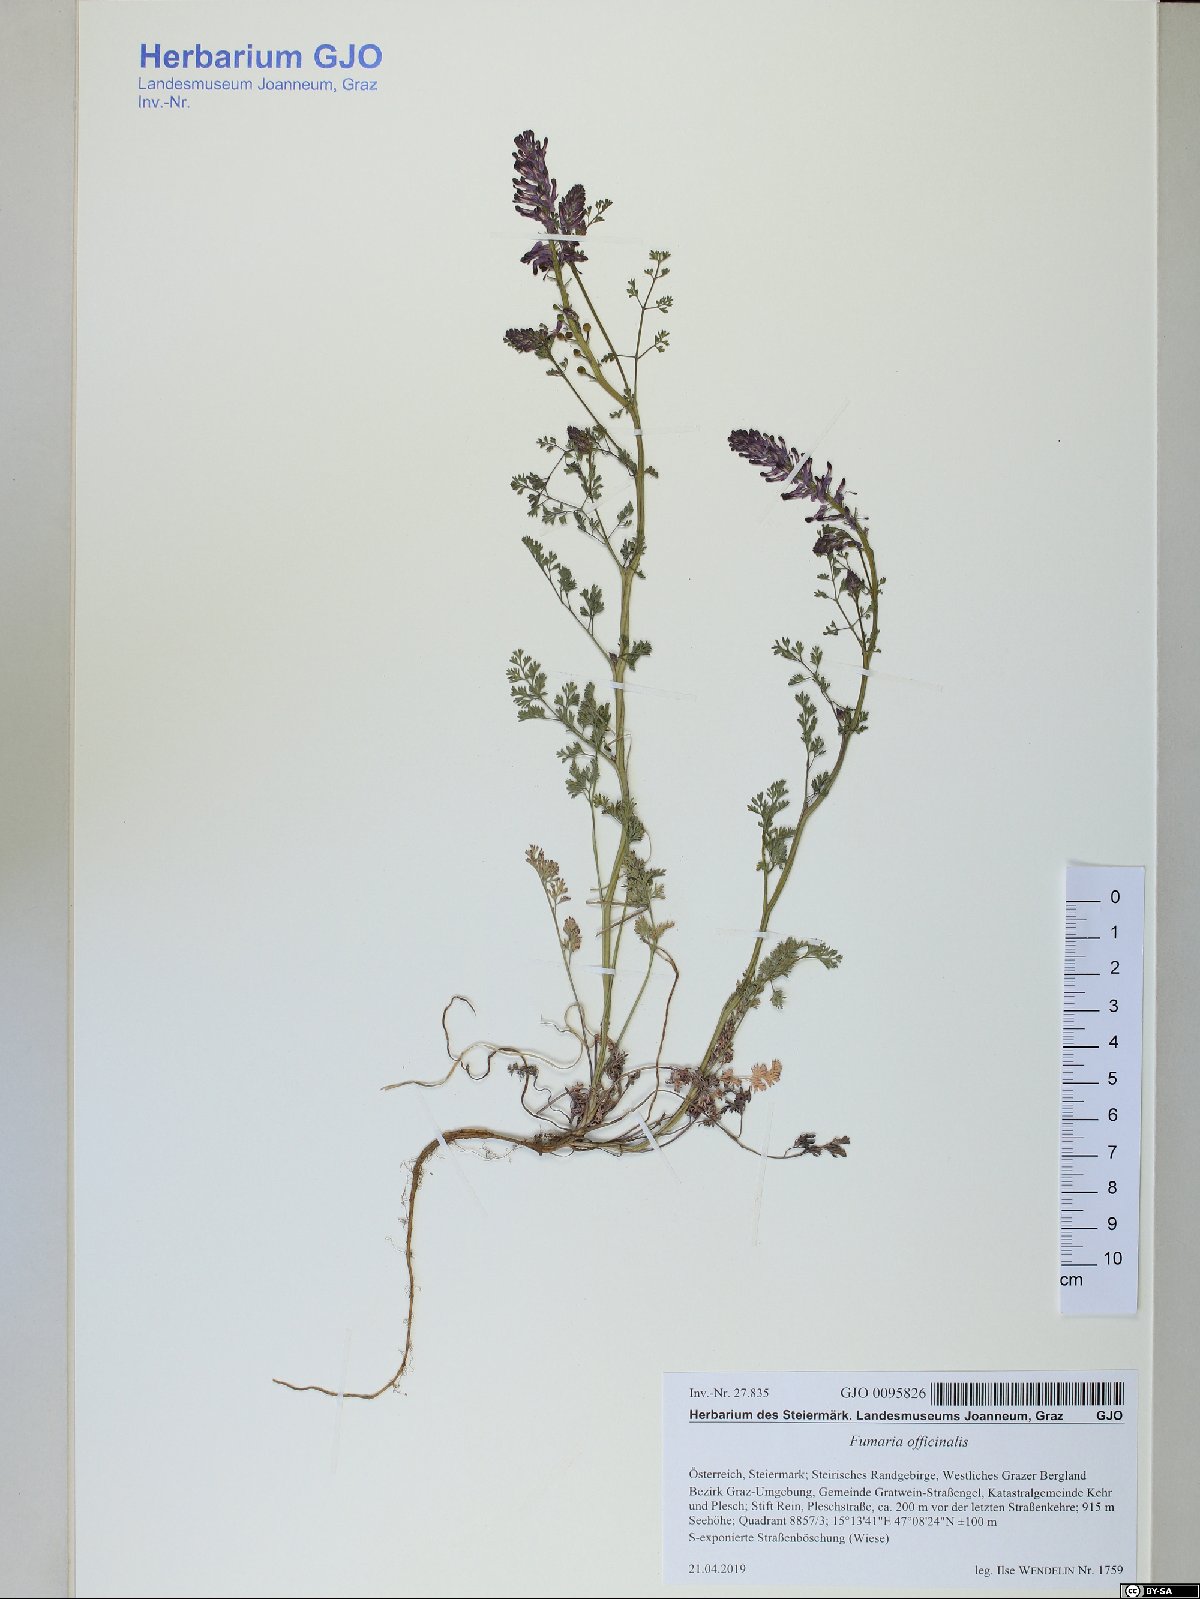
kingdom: Plantae
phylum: Tracheophyta
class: Magnoliopsida
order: Ranunculales
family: Papaveraceae
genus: Fumaria
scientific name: Fumaria officinalis
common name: Common fumitory
